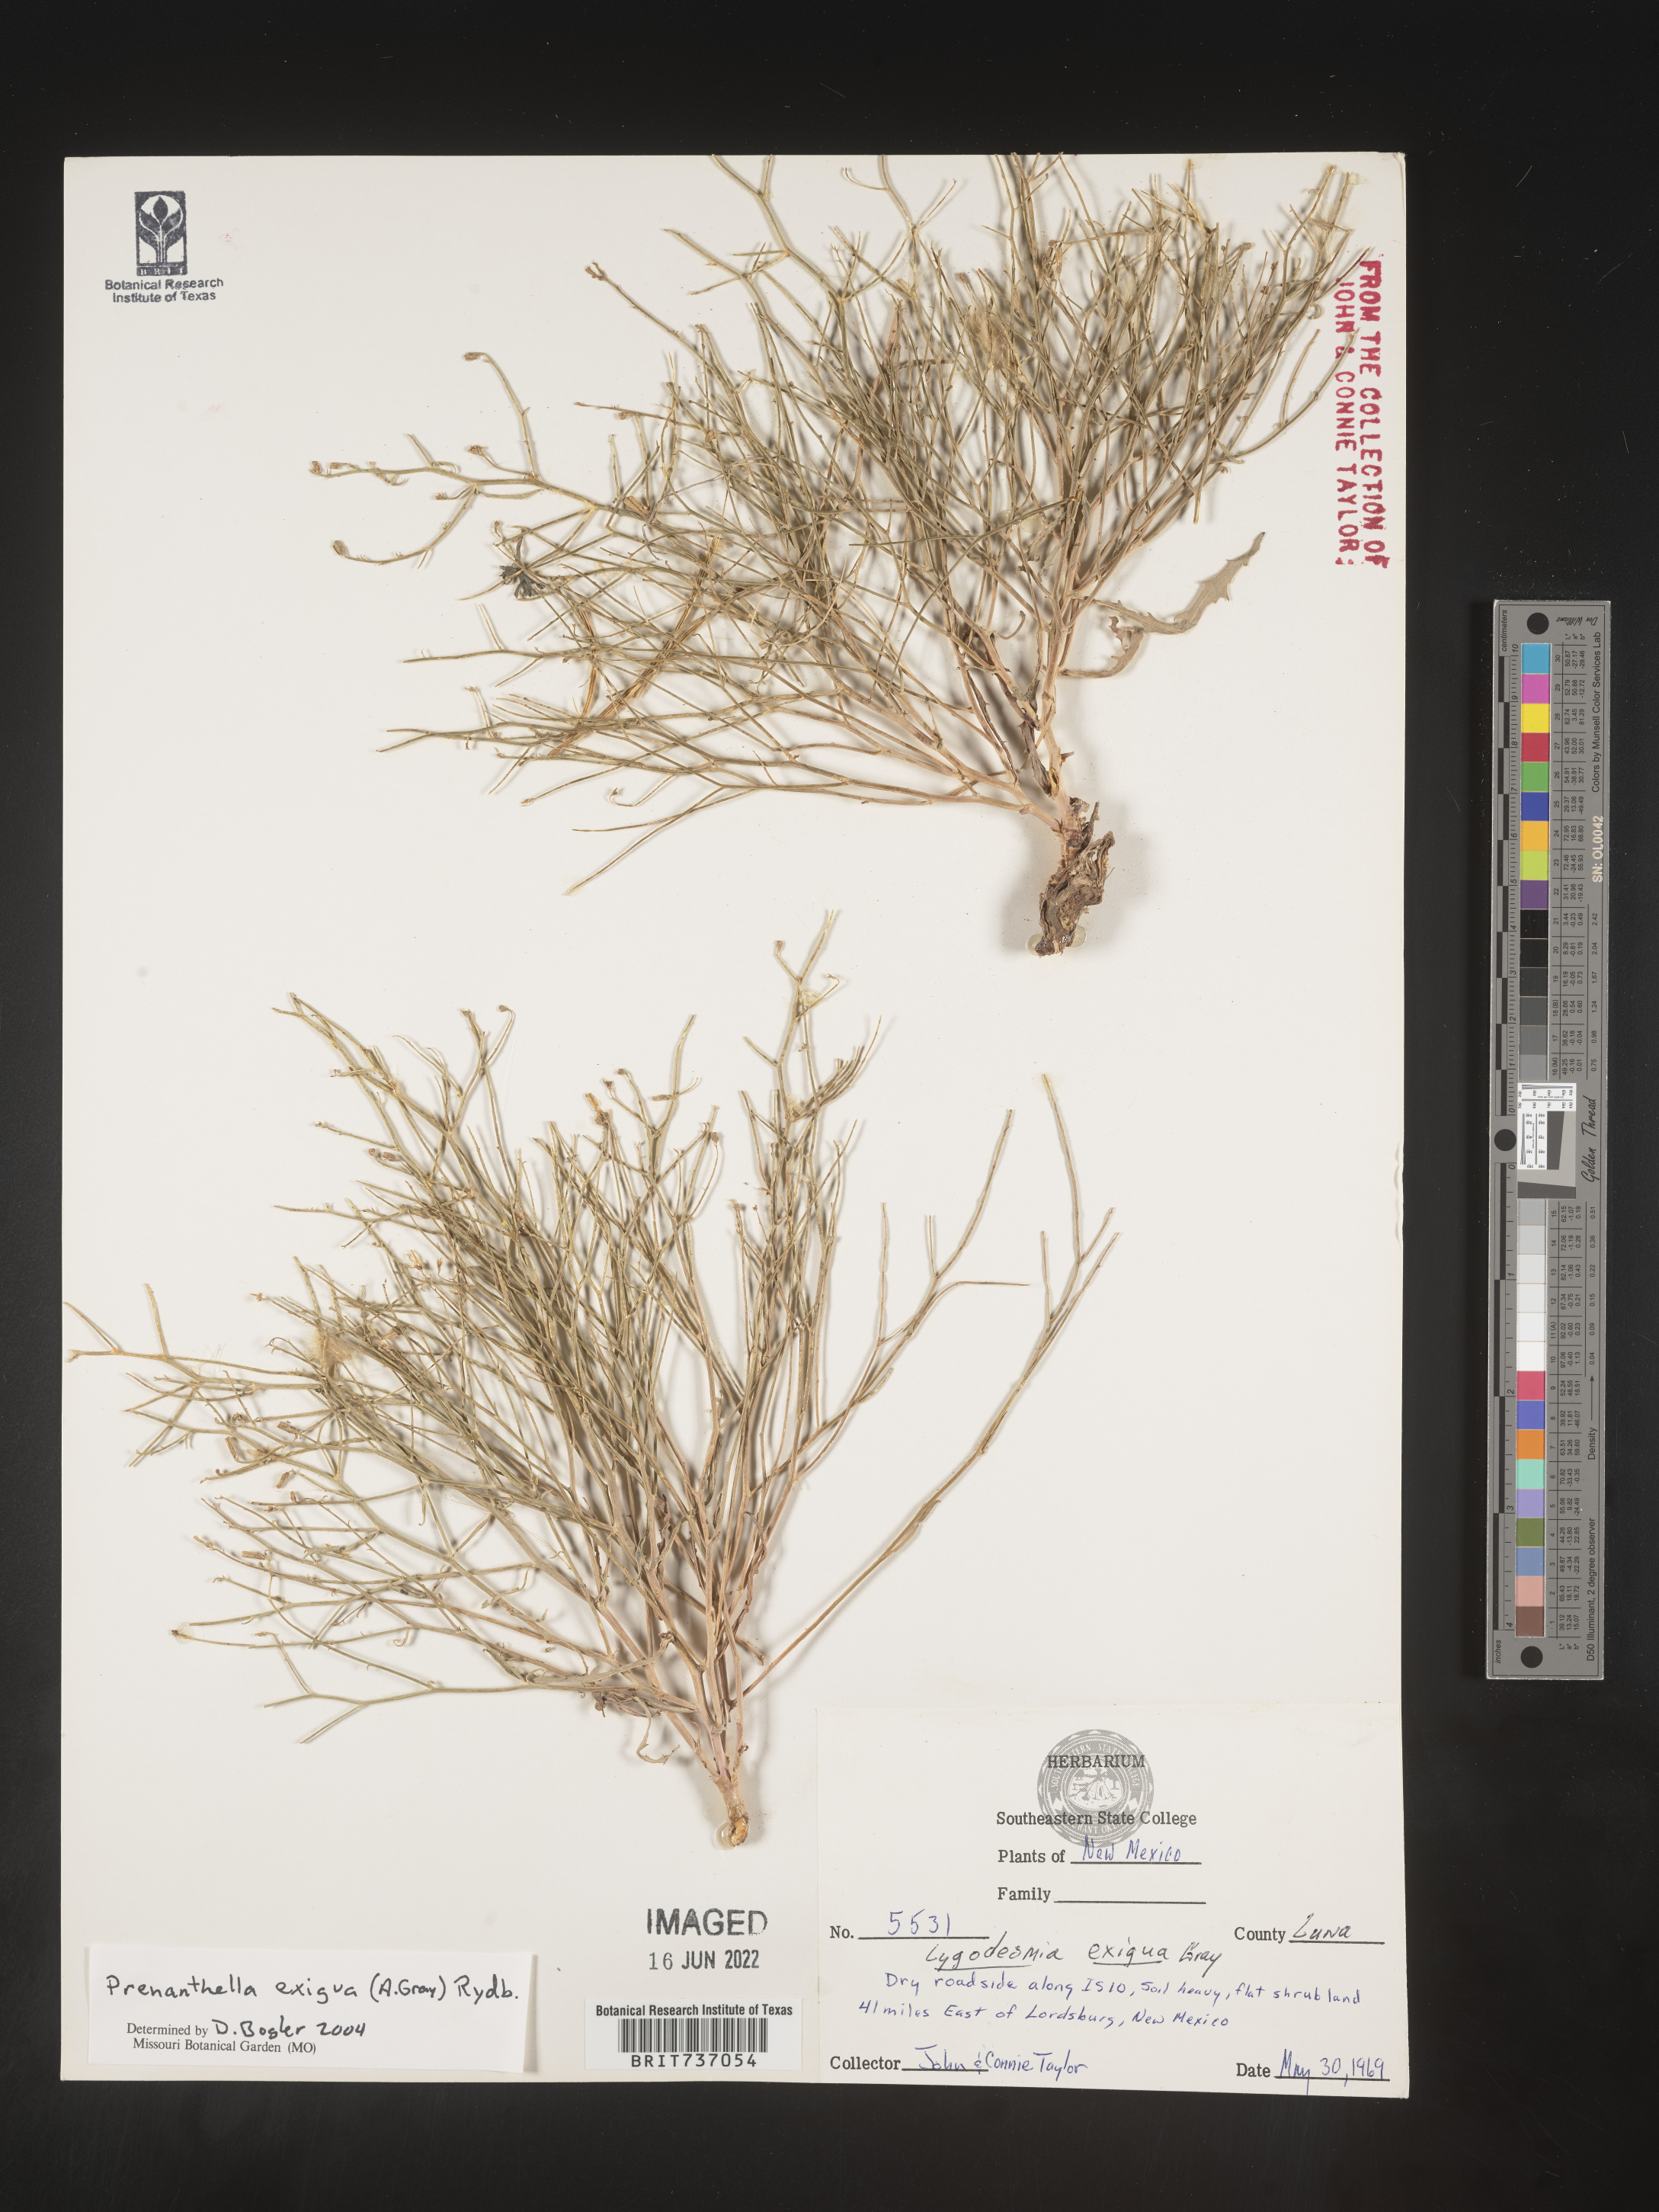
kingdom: Plantae
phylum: Tracheophyta
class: Magnoliopsida
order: Asterales
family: Asteraceae
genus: Lygodesmia
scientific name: Lygodesmia
